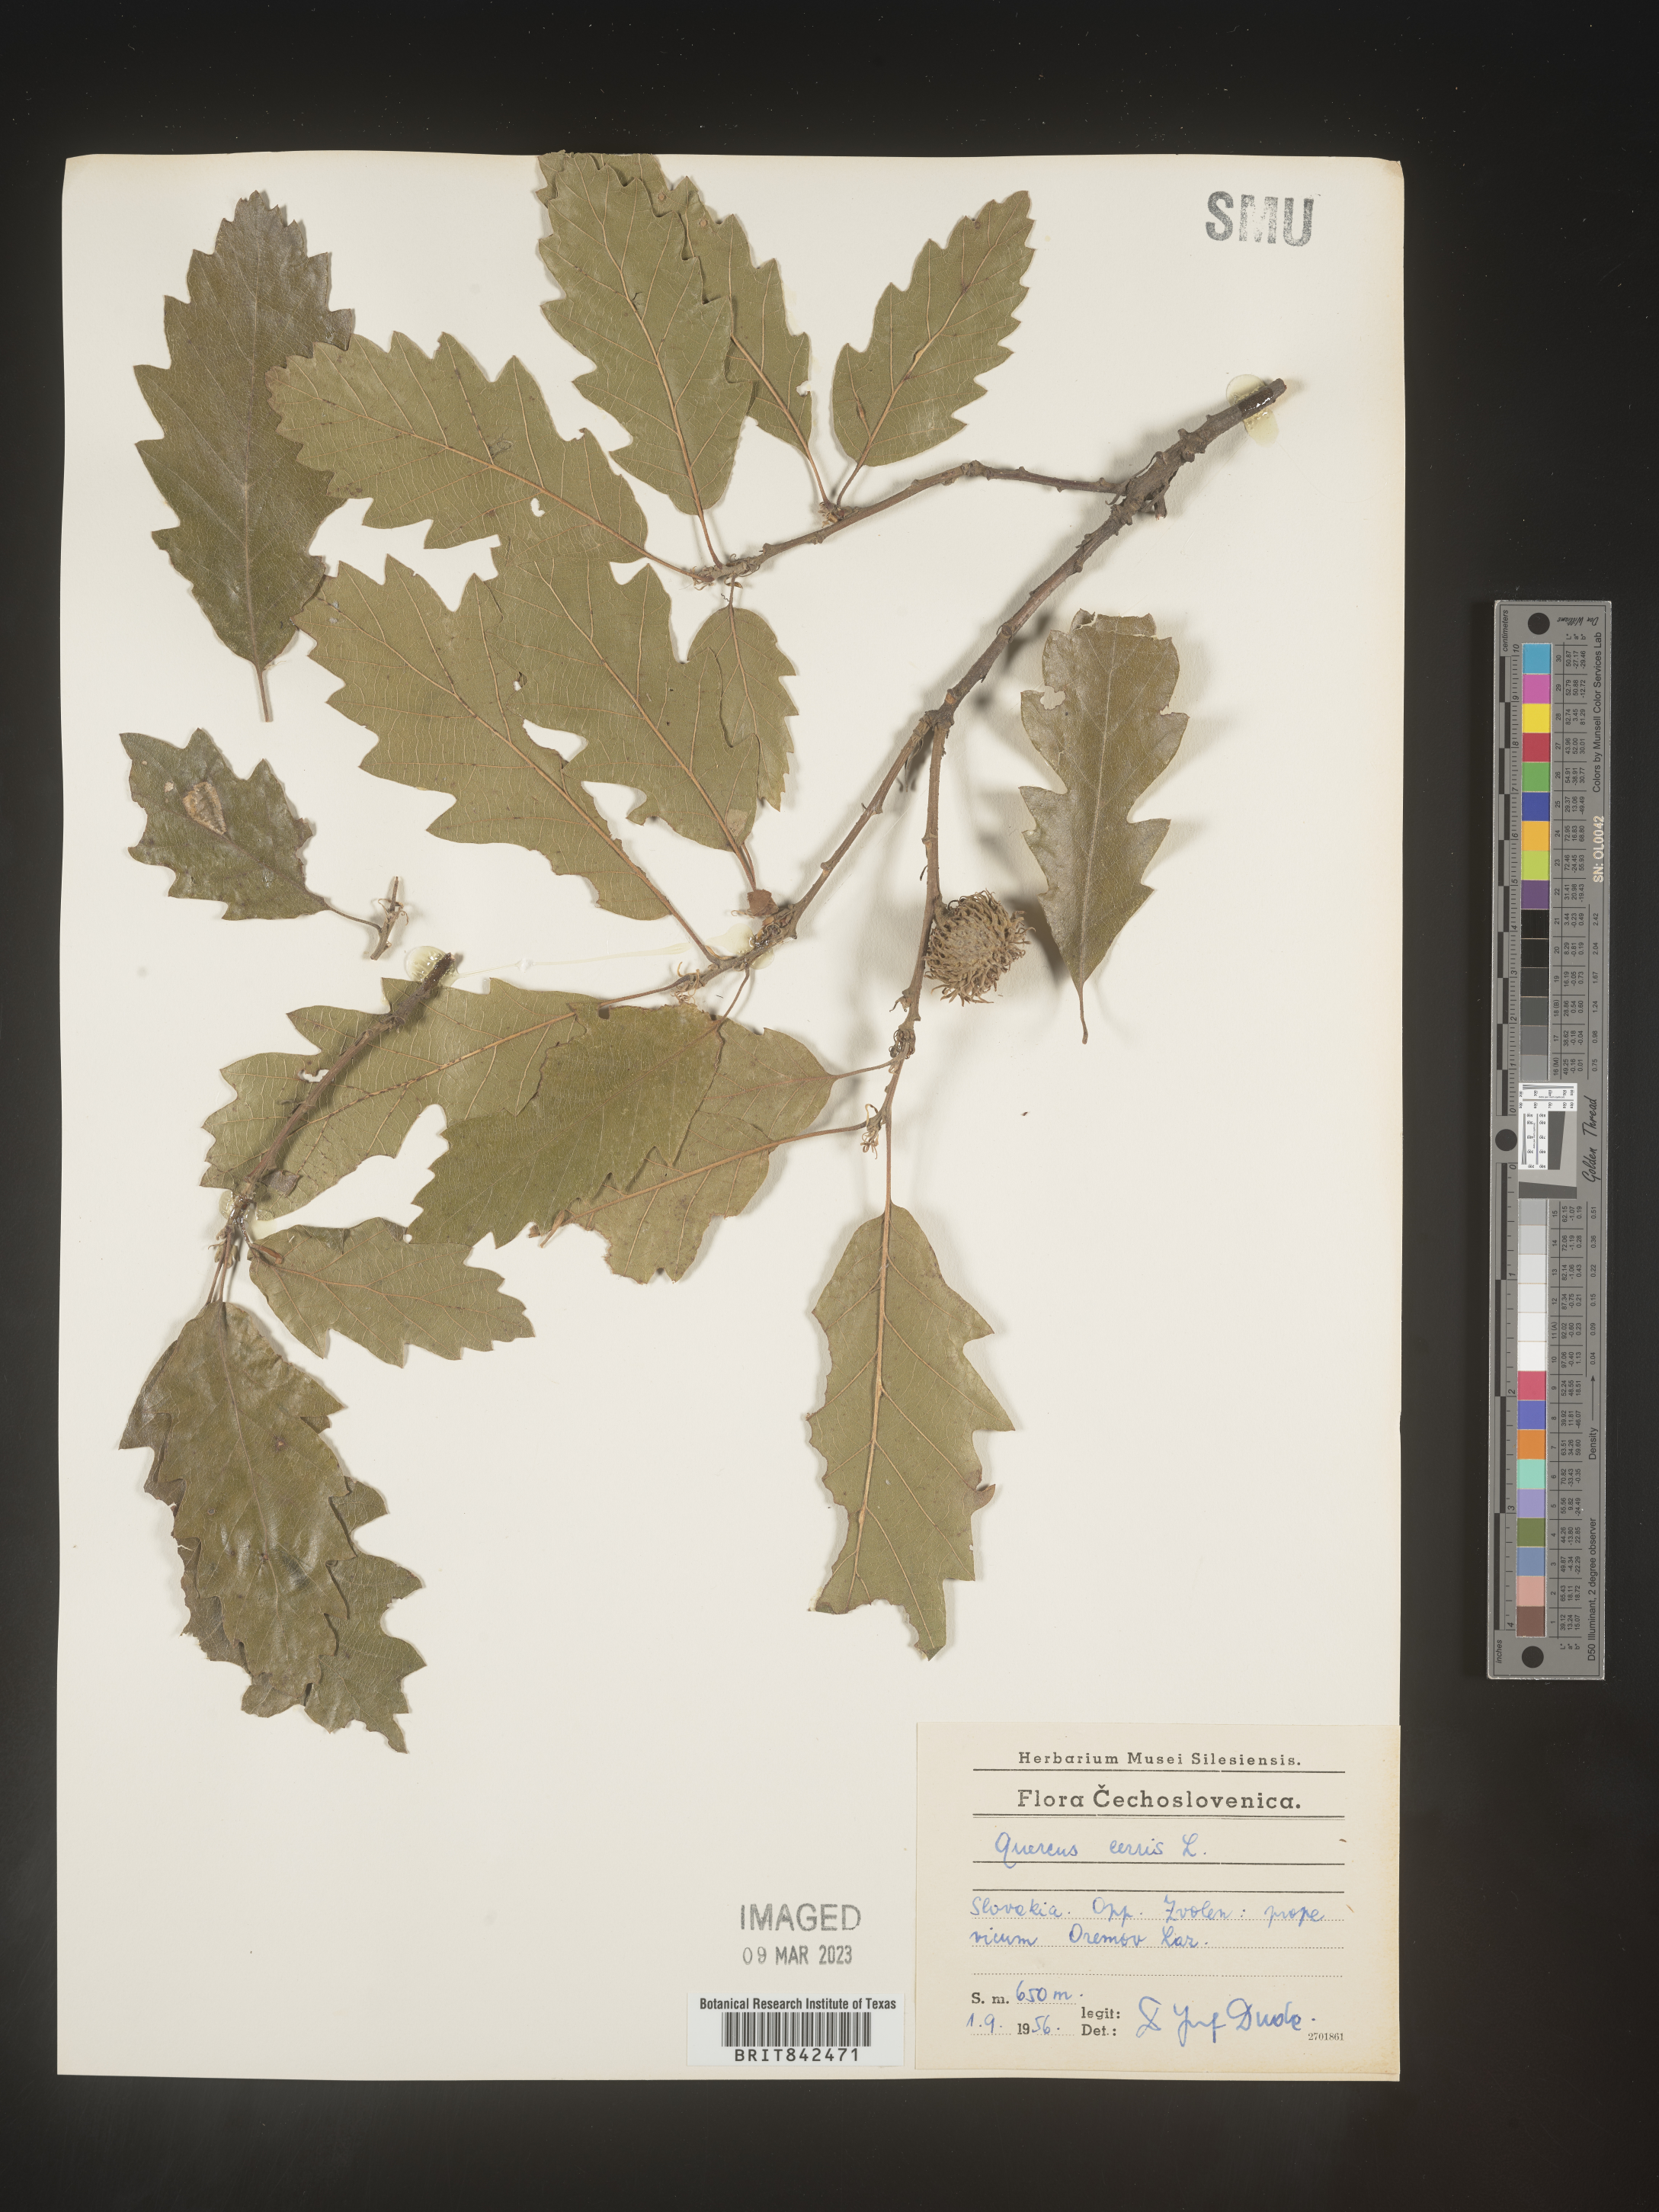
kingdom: Plantae
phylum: Tracheophyta
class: Magnoliopsida
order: Fagales
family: Fagaceae
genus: Quercus
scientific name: Quercus
